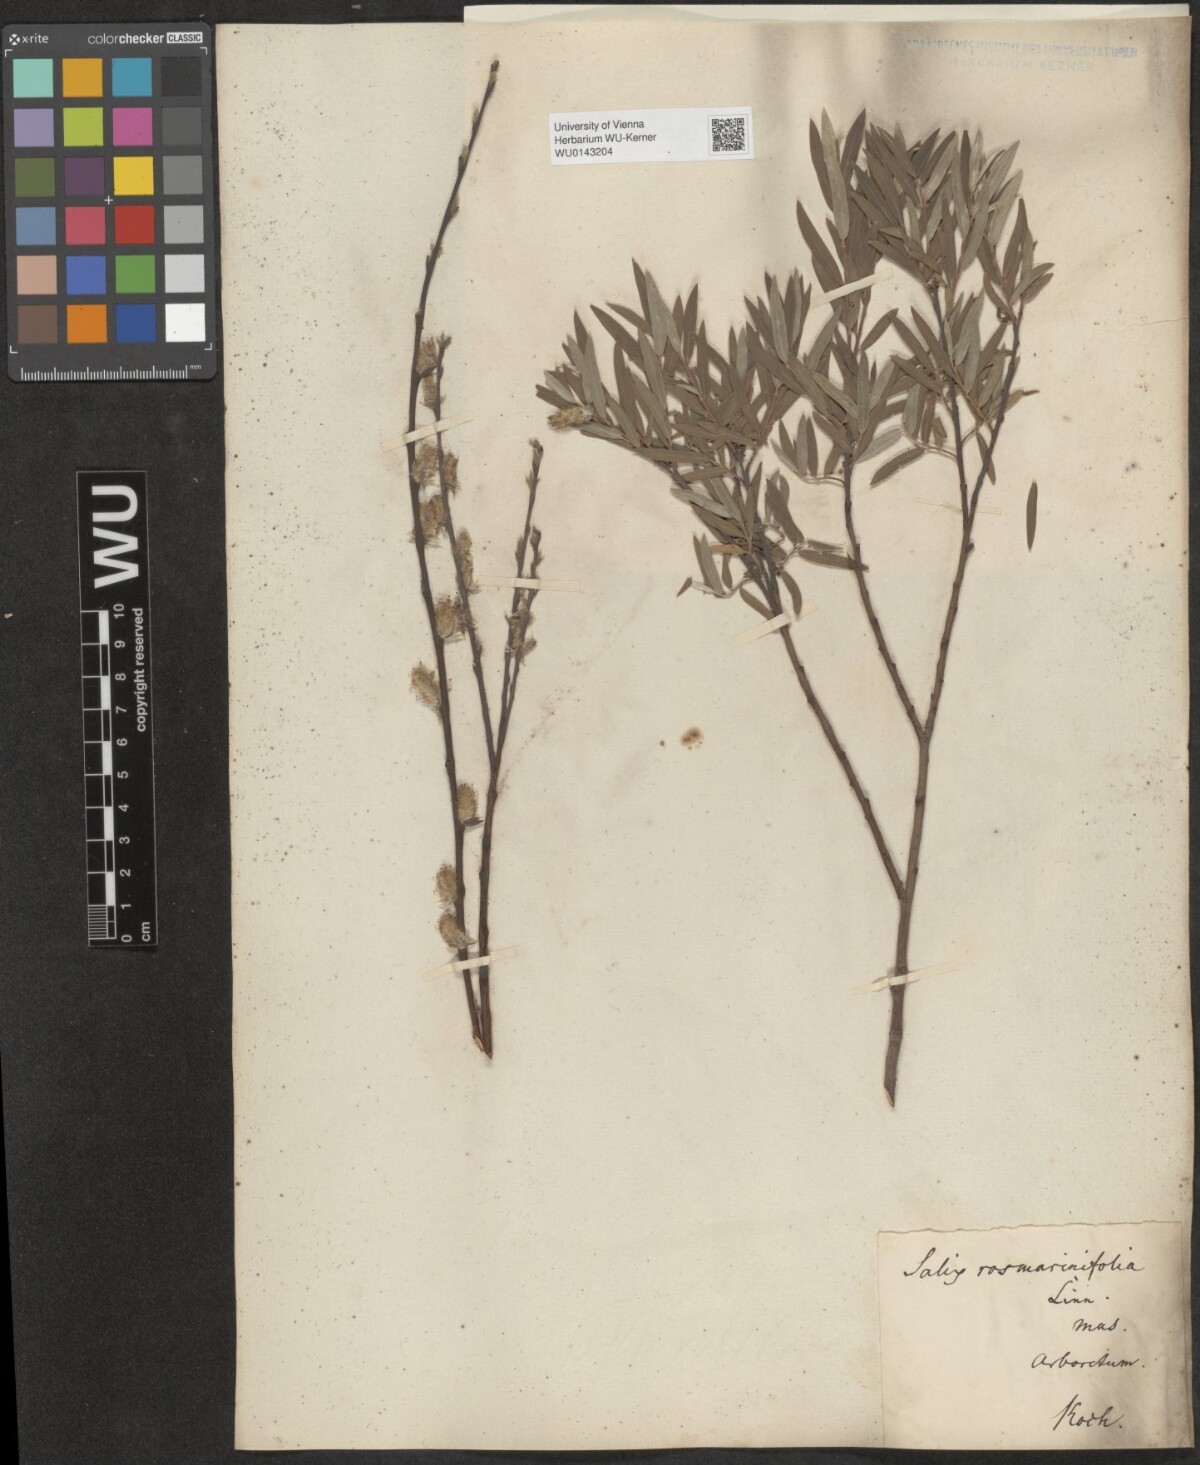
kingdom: Plantae
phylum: Tracheophyta
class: Magnoliopsida
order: Malpighiales
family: Salicaceae
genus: Salix
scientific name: Salix repens
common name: Creeping willow
